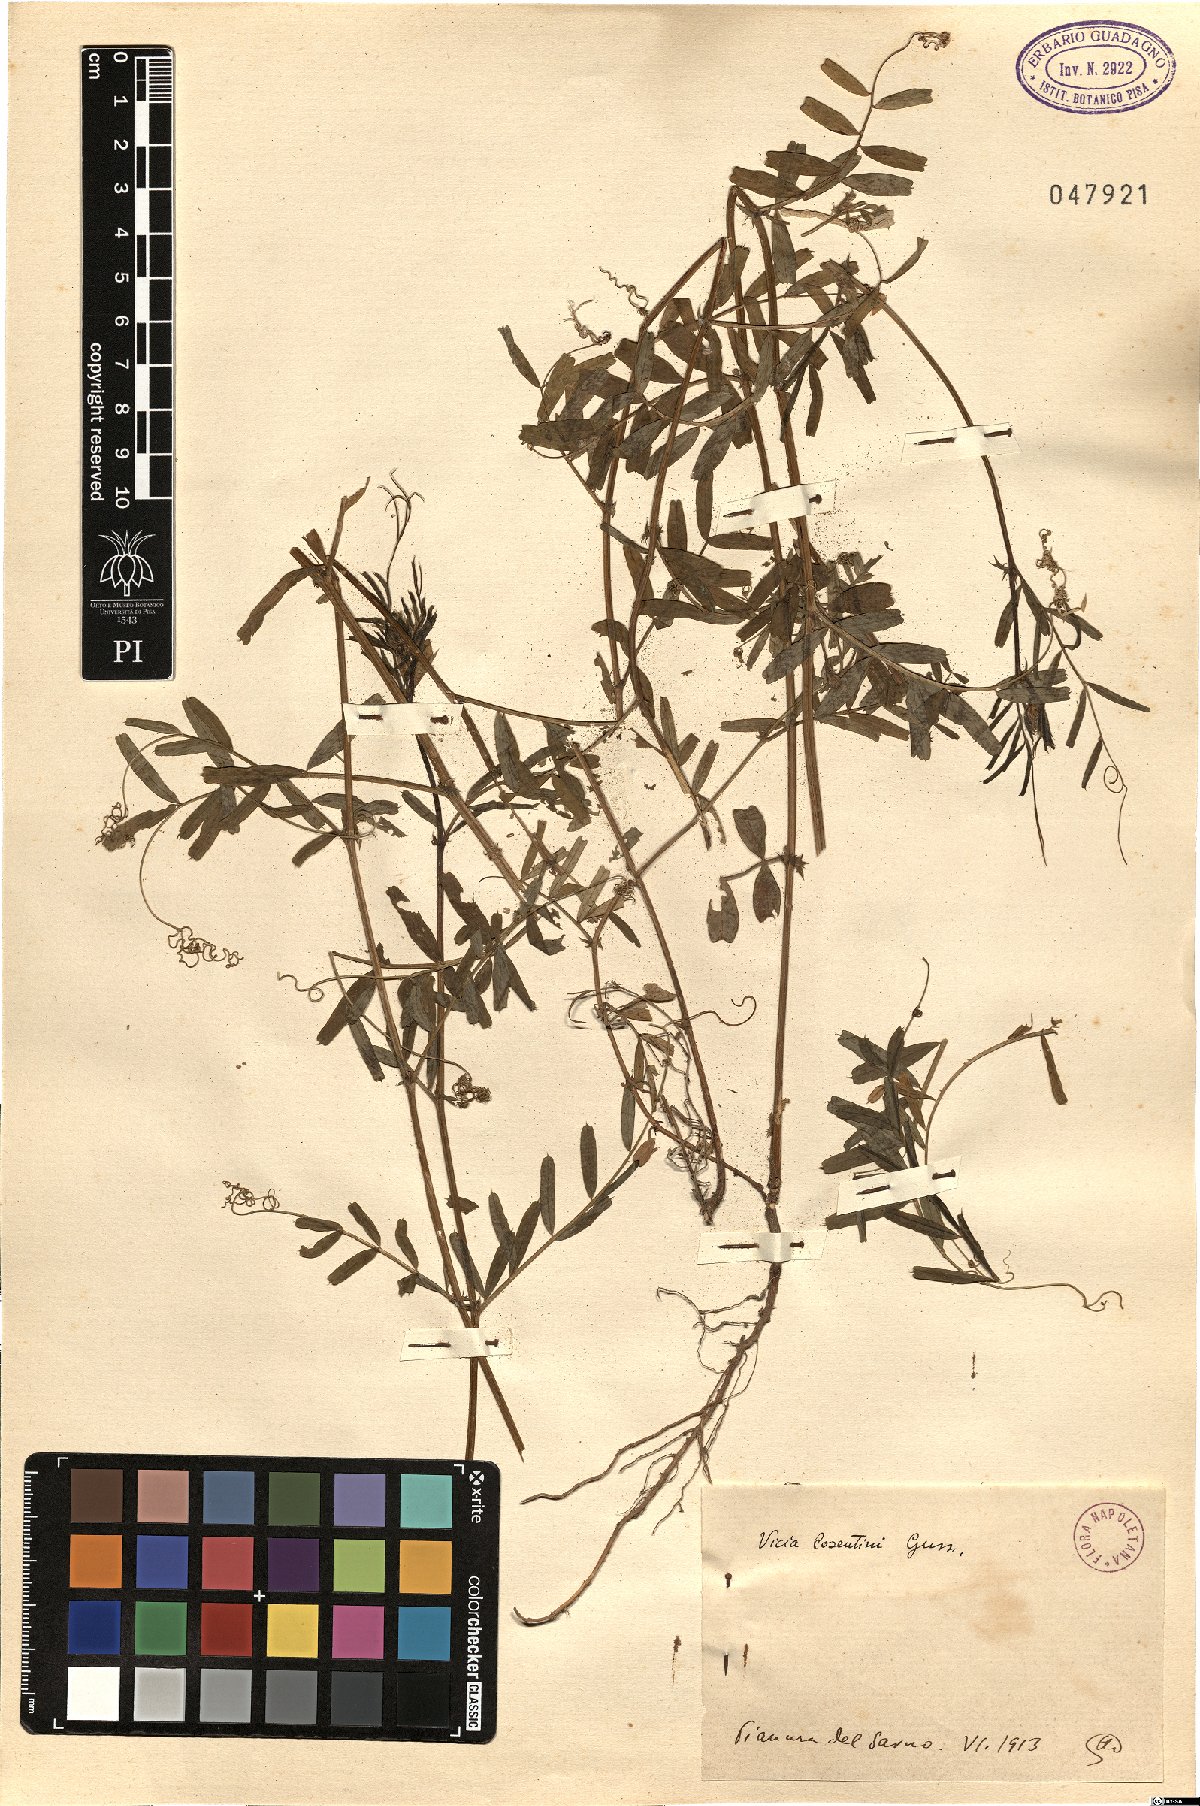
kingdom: Plantae
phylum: Tracheophyta
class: Magnoliopsida
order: Fabales
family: Fabaceae
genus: Vicia
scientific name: Vicia sativa
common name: Garden vetch
